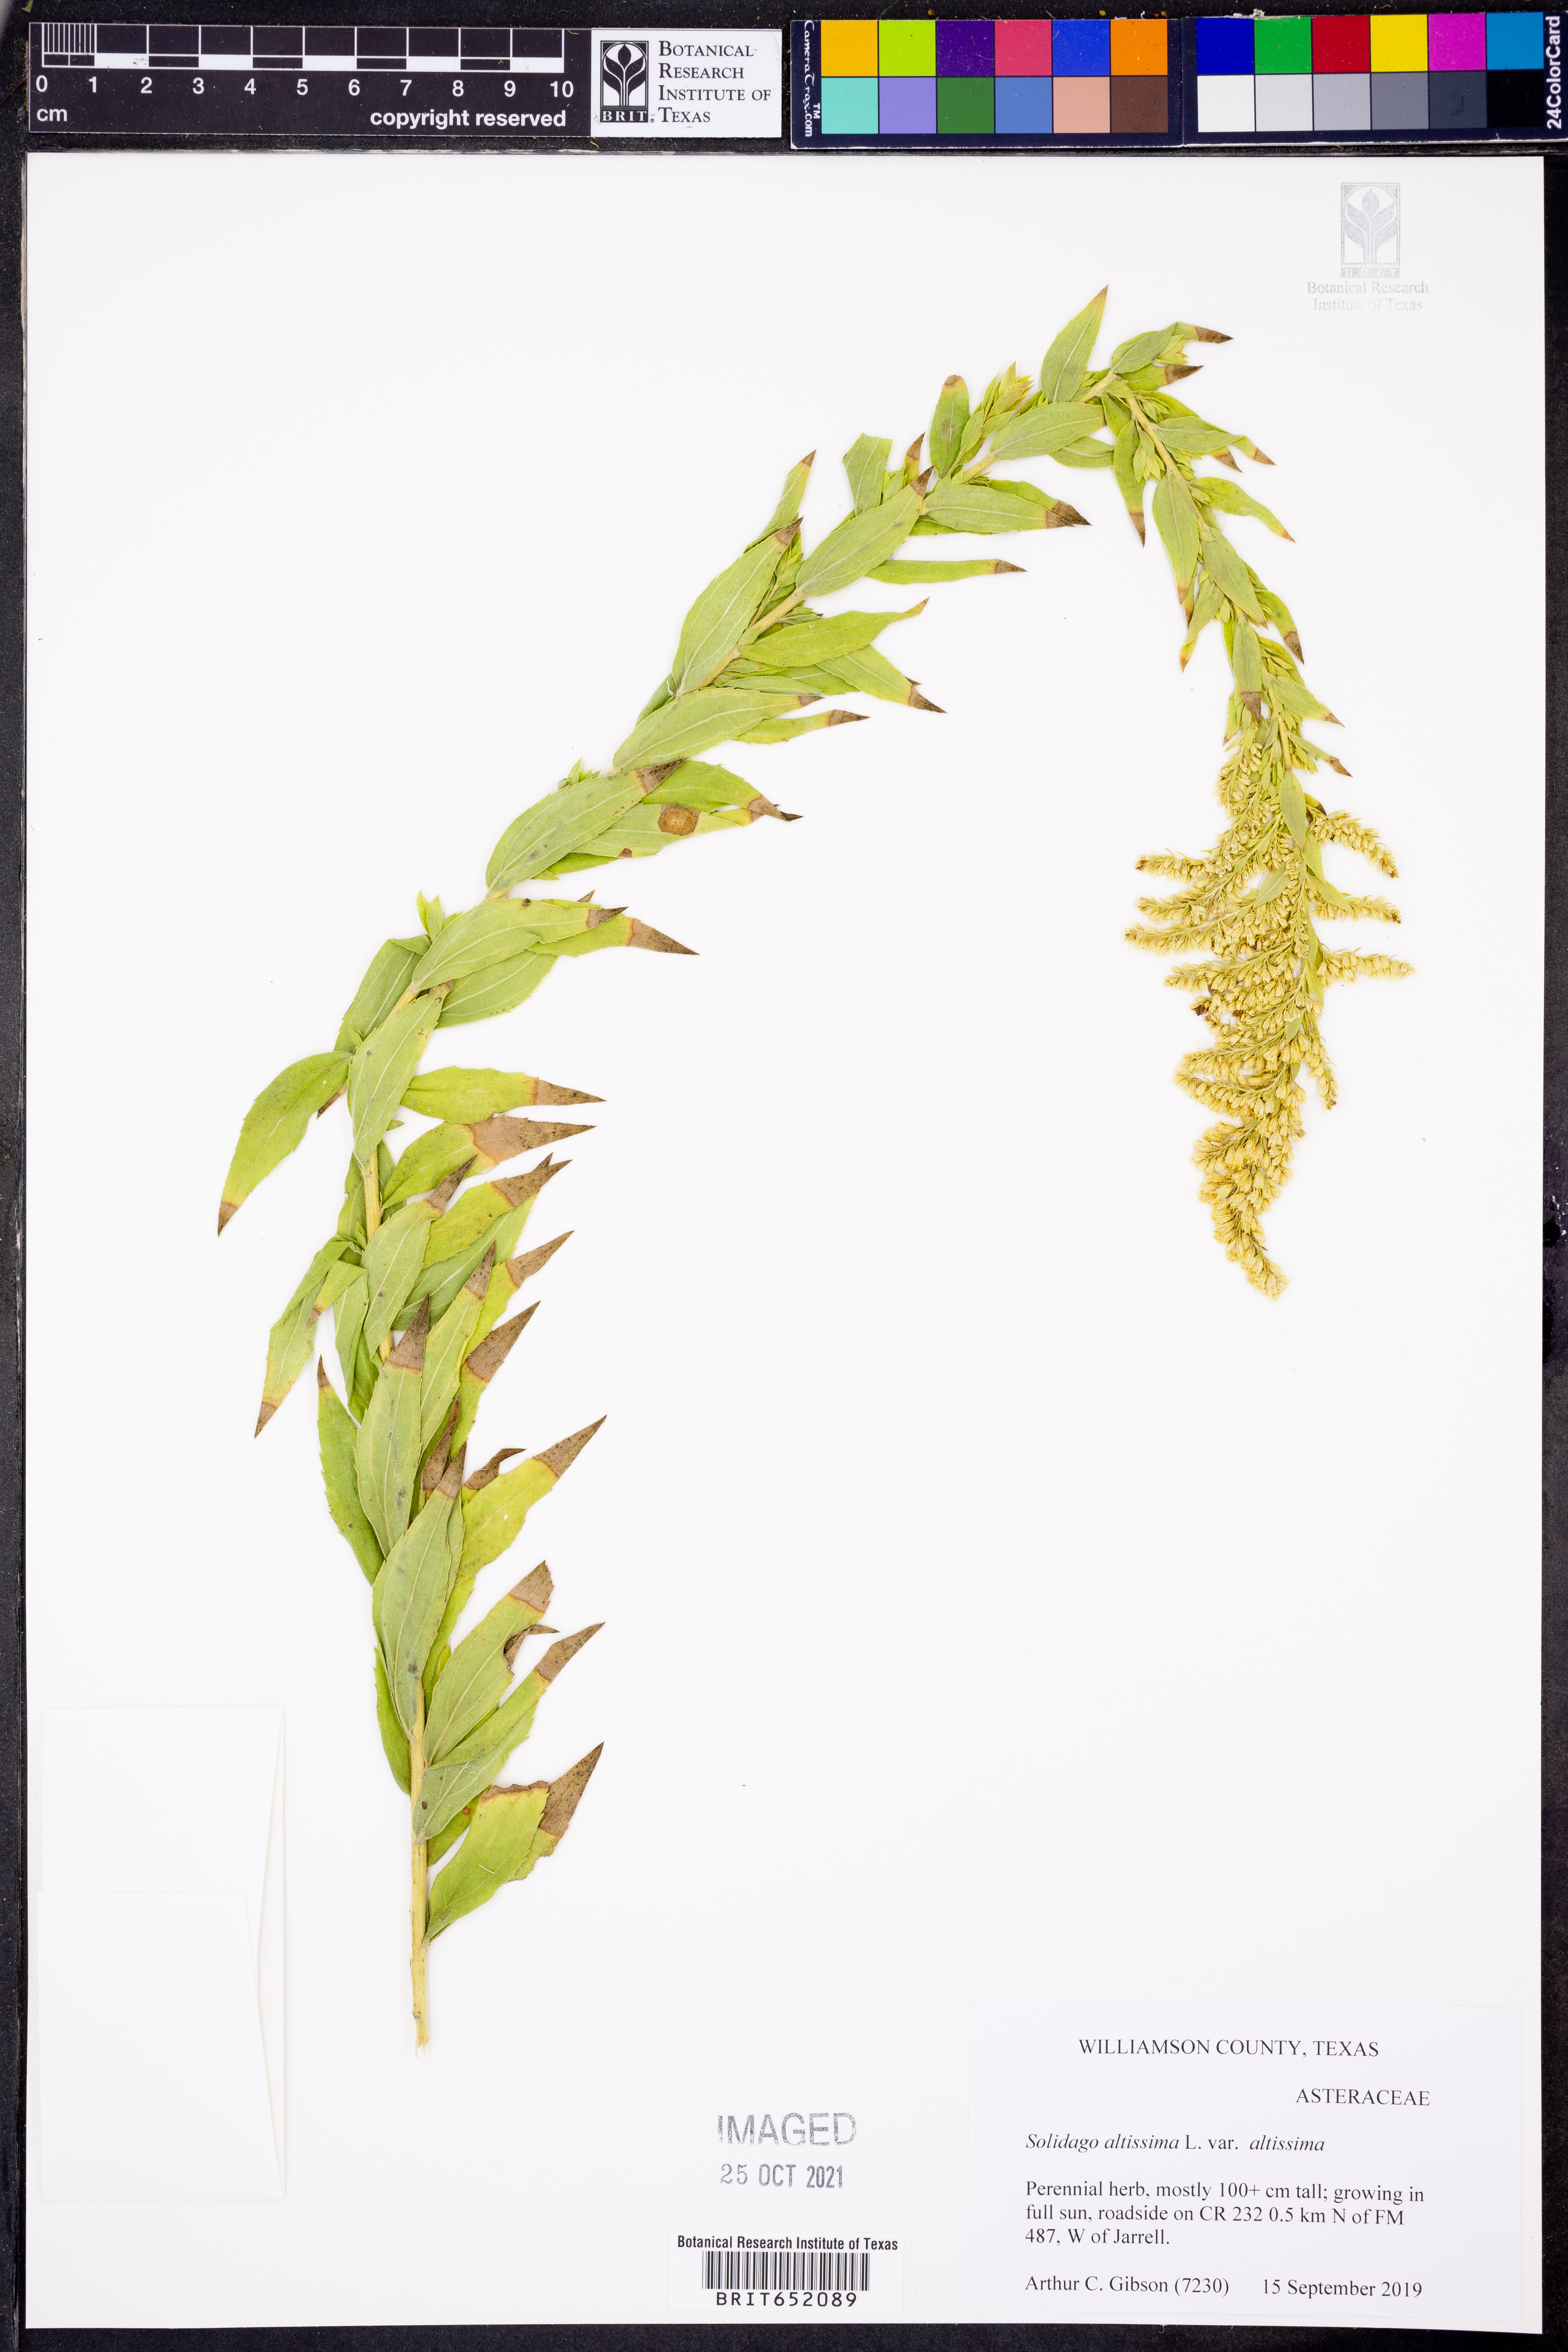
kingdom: Plantae
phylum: Tracheophyta
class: Magnoliopsida
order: Asterales
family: Asteraceae
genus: Solidago
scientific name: Solidago altissima
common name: Late goldenrod
